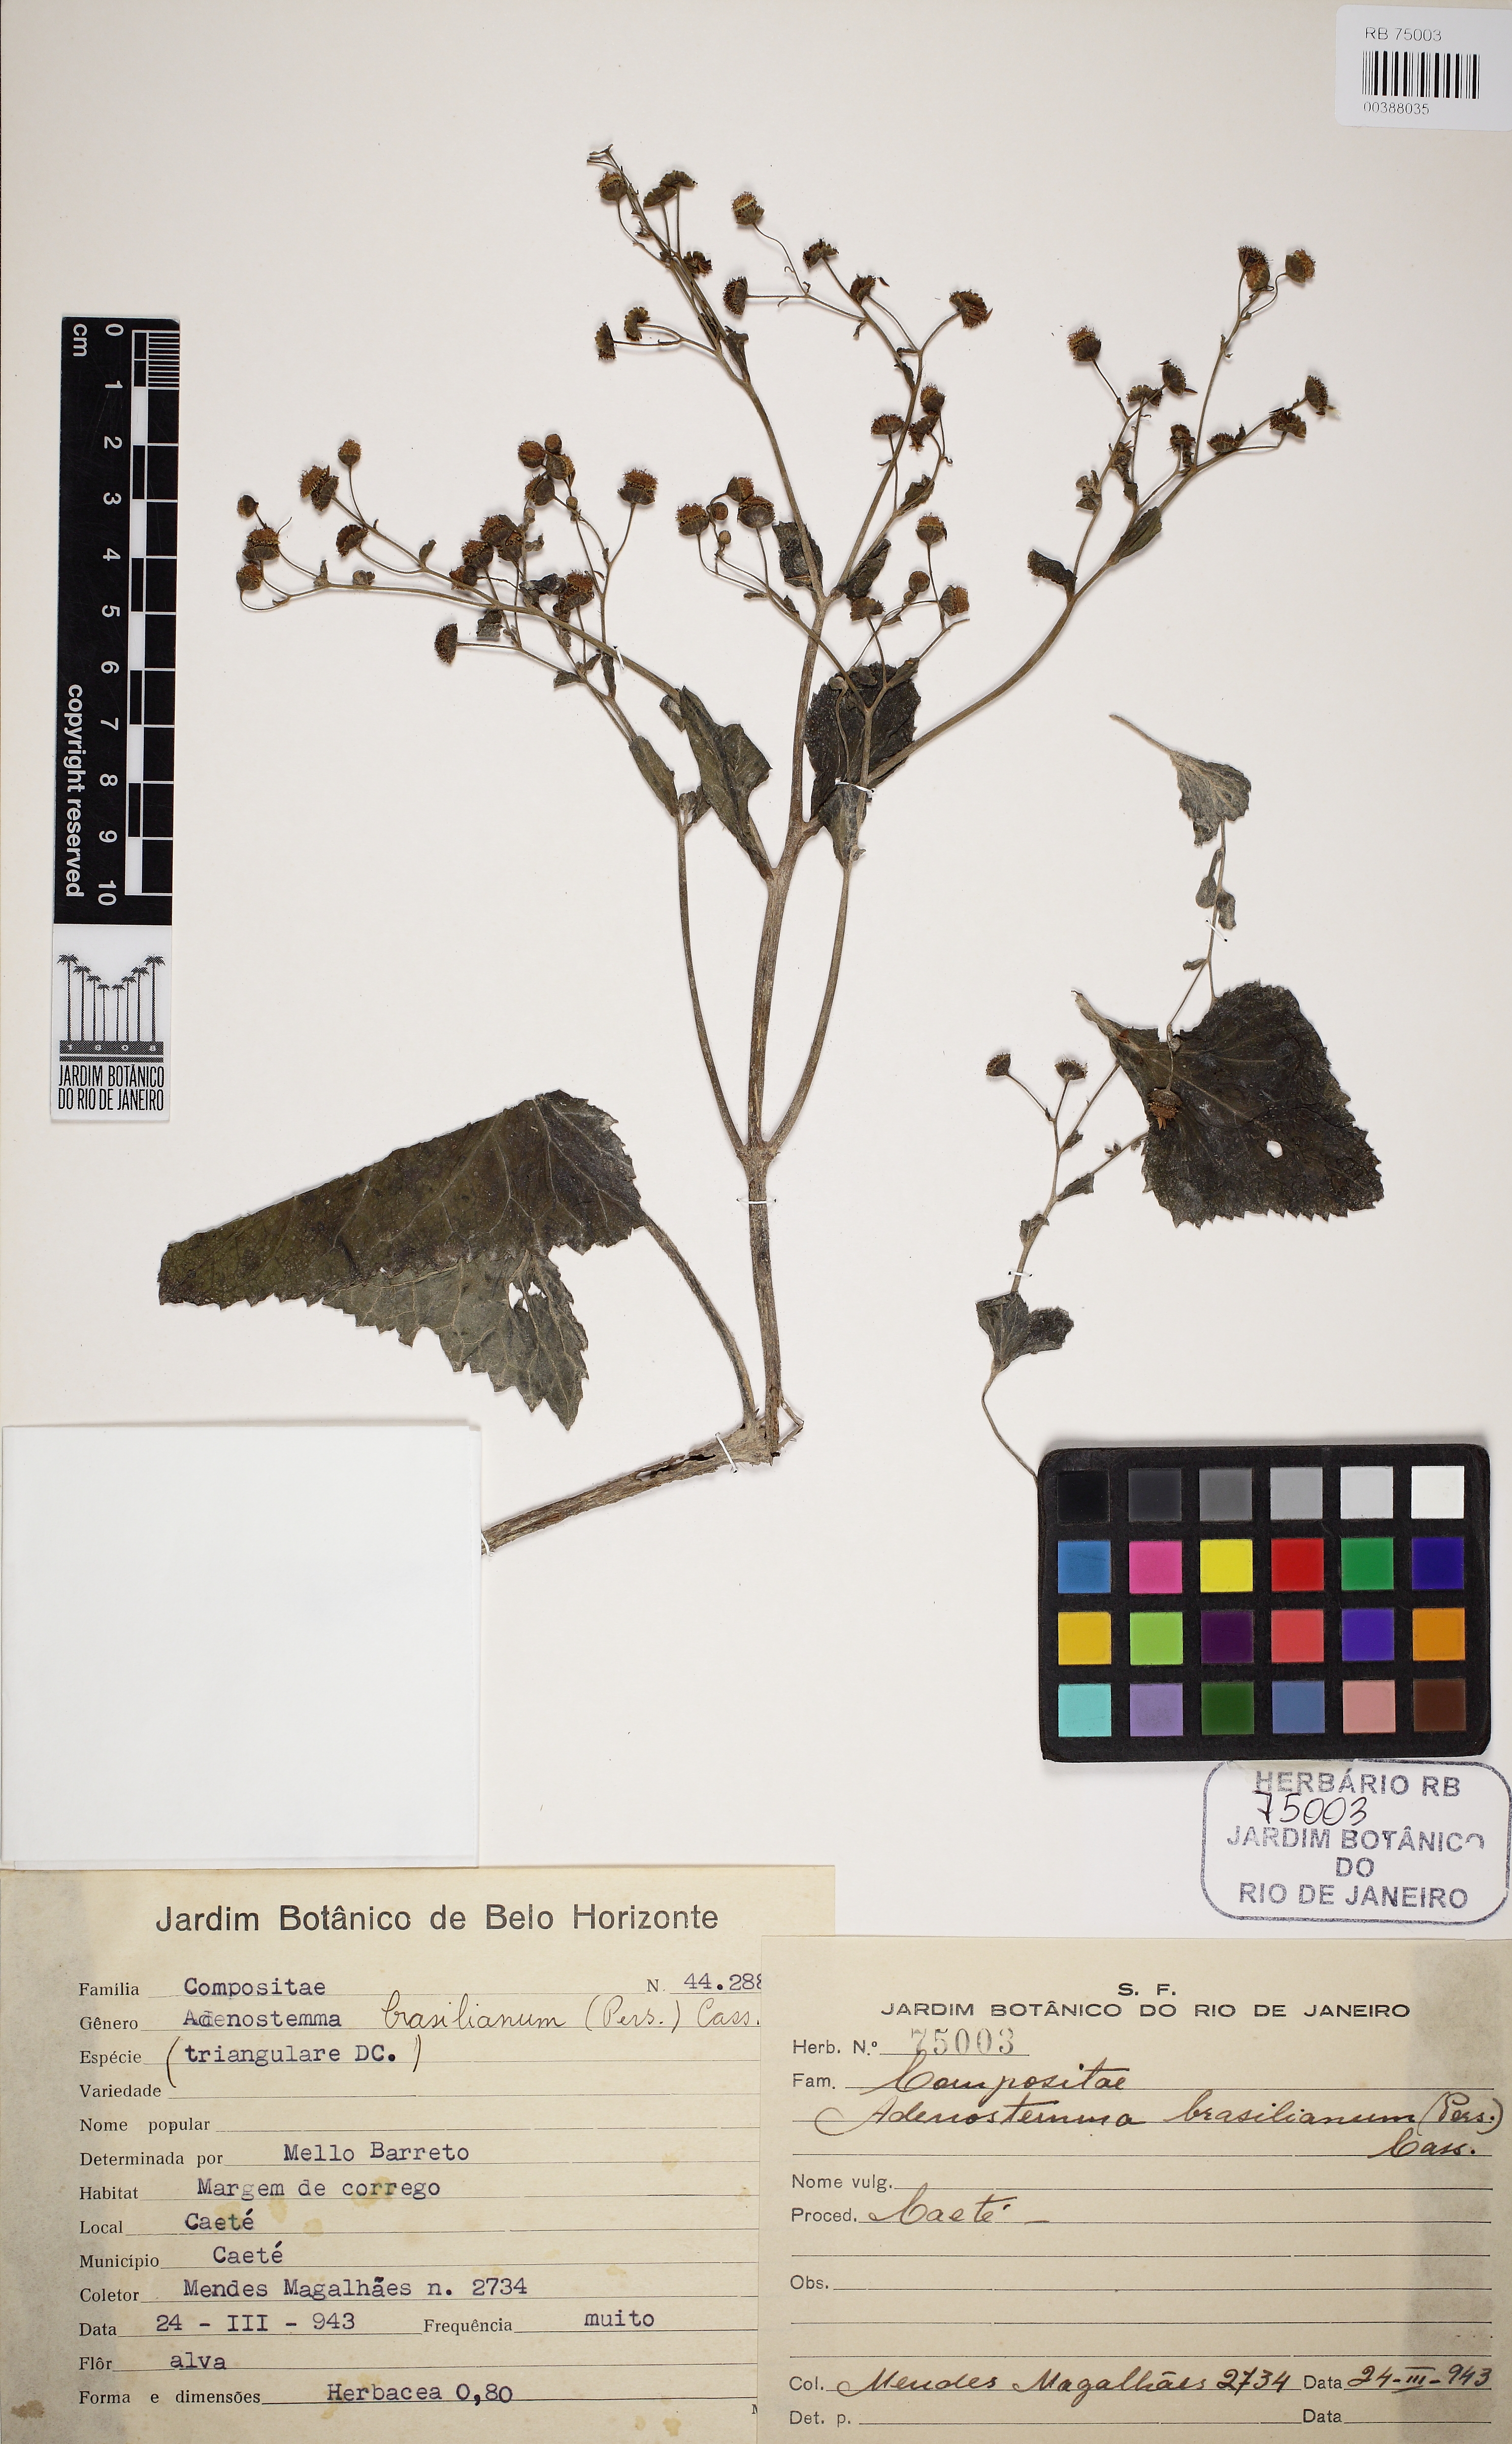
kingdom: Plantae
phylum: Tracheophyta
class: Magnoliopsida
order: Asterales
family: Asteraceae
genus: Adenostemma
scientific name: Adenostemma brasilianum
